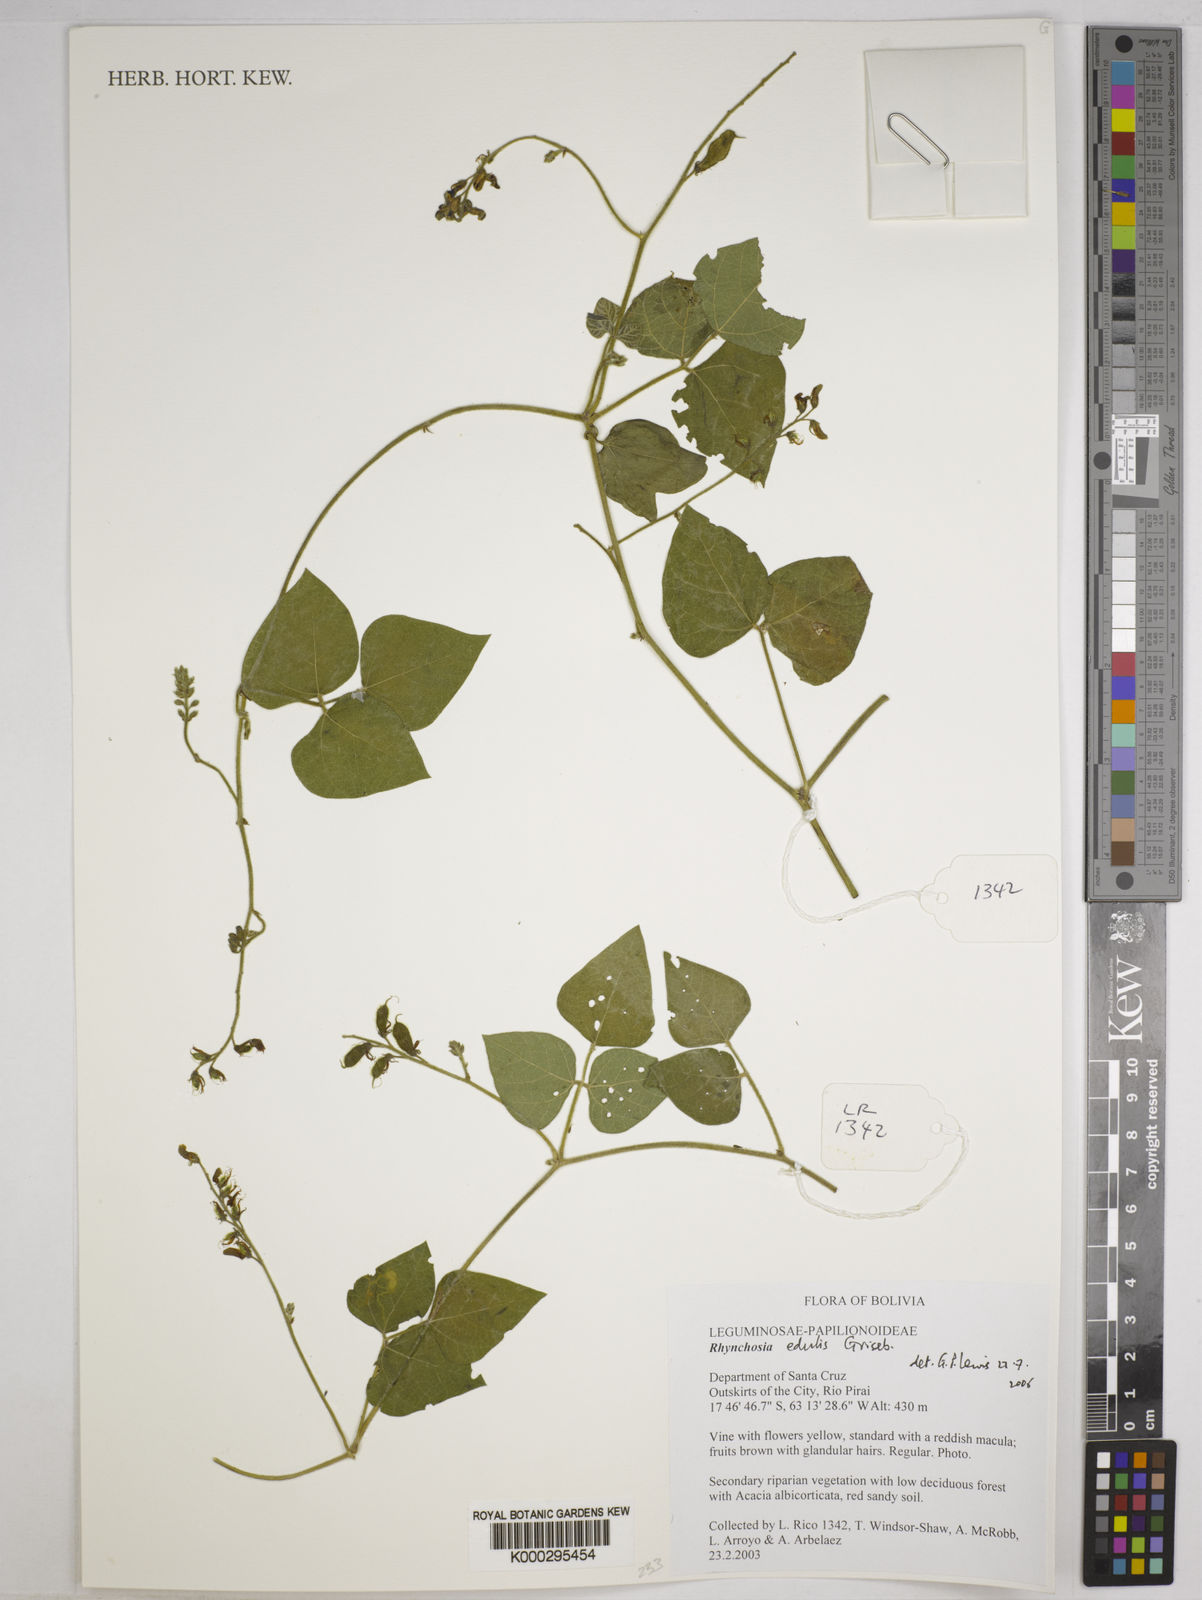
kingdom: Plantae
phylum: Tracheophyta
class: Magnoliopsida
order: Fabales
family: Fabaceae
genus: Rhynchosia
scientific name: Rhynchosia edulis
